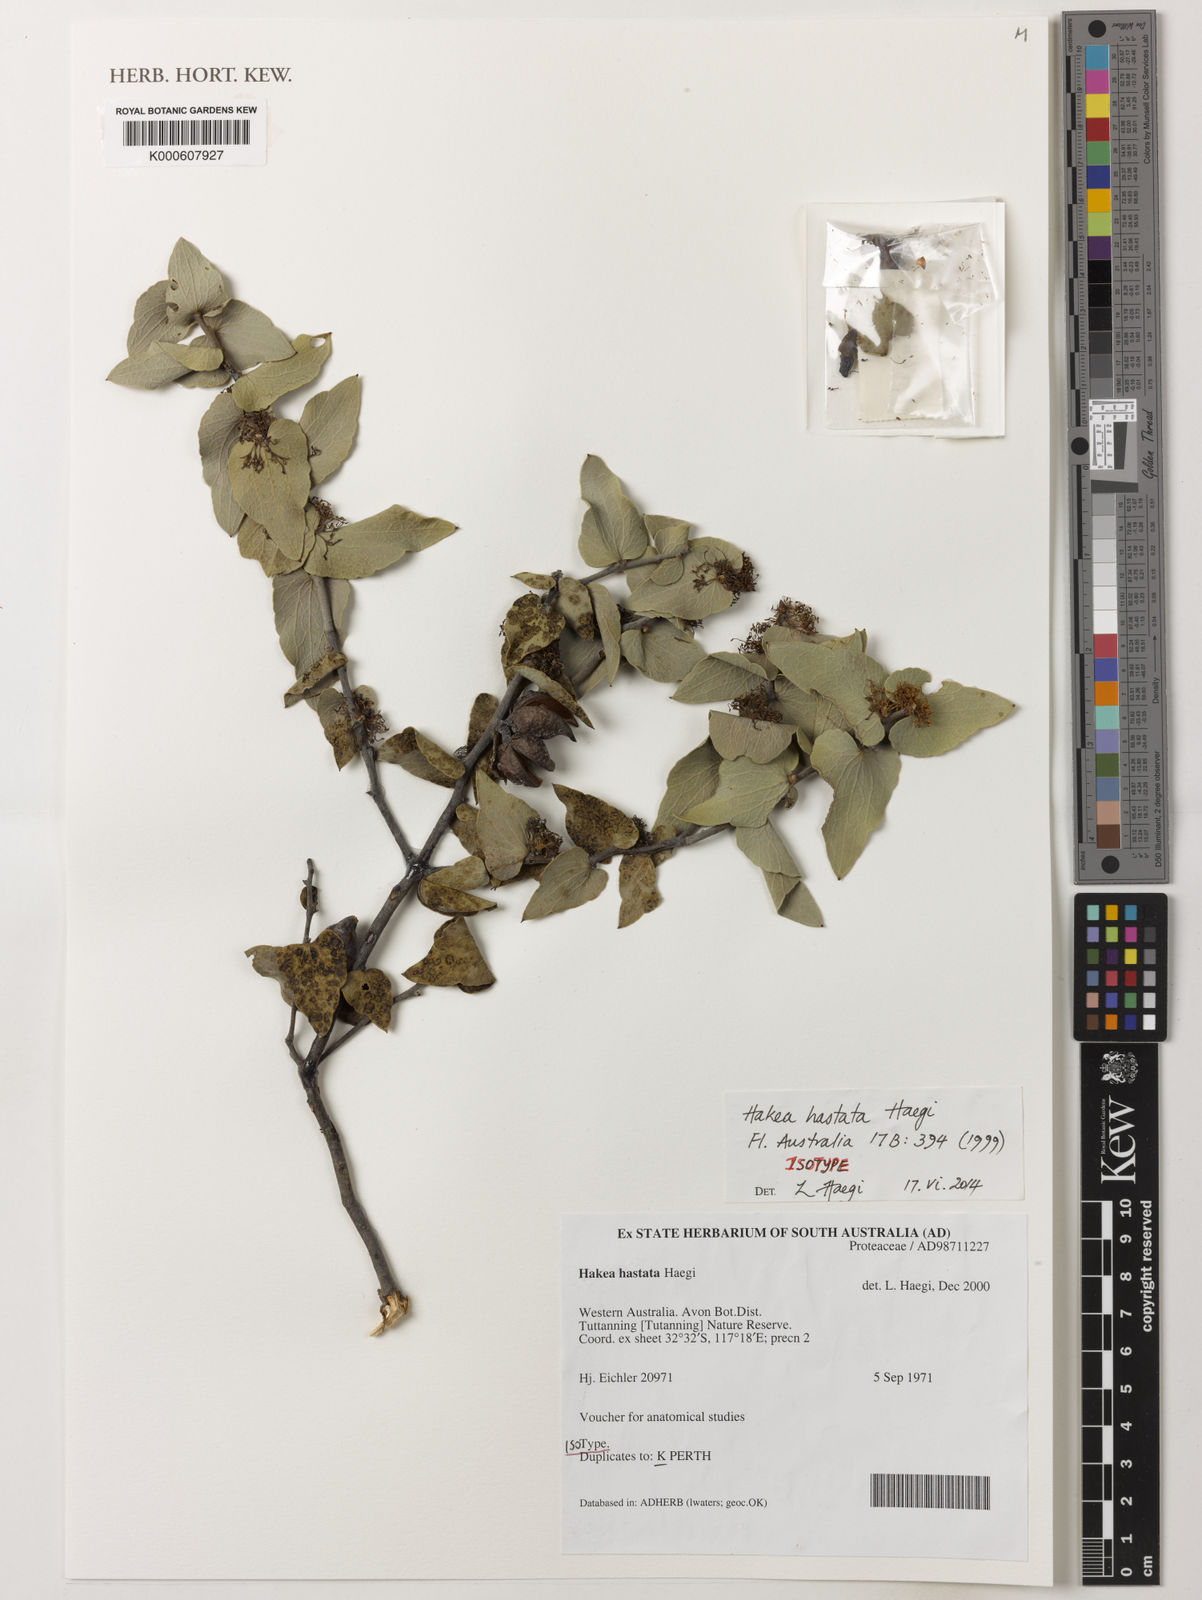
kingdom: Plantae
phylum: Tracheophyta
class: Magnoliopsida
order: Proteales
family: Proteaceae
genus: Hakea
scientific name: Hakea hastata
